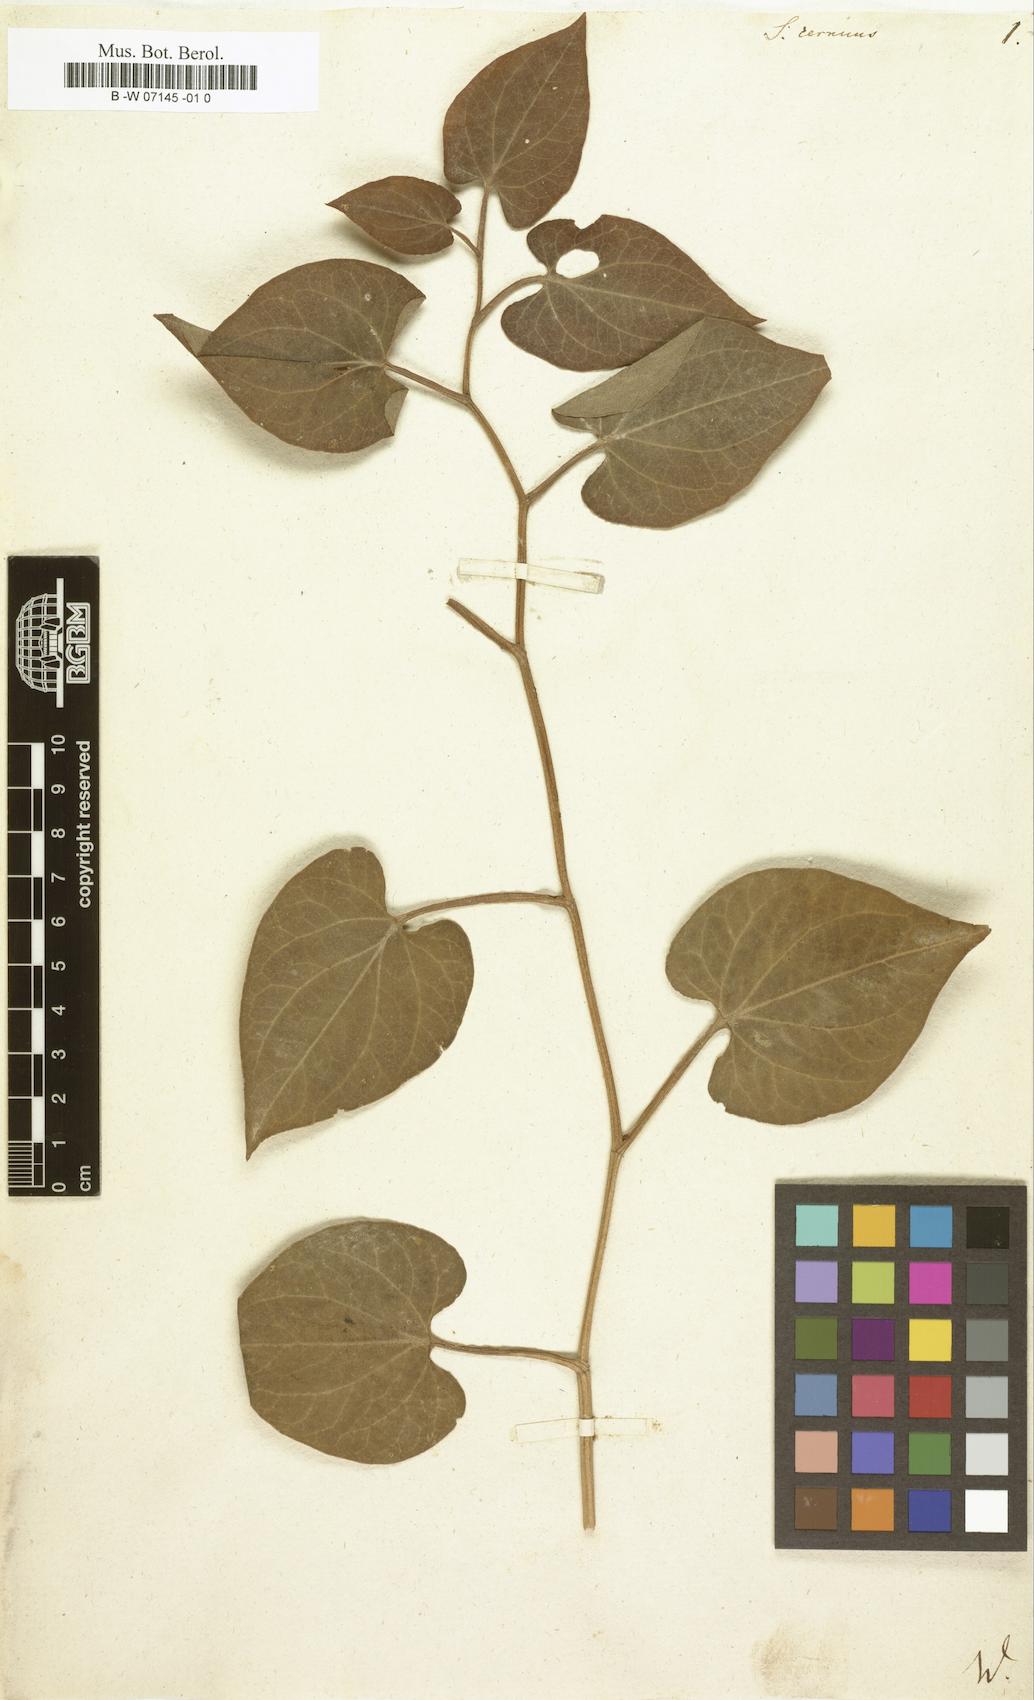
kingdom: Plantae
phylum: Tracheophyta
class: Magnoliopsida
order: Piperales
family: Saururaceae
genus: Saururus
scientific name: Saururus cernuus
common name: Lizard's-tail
